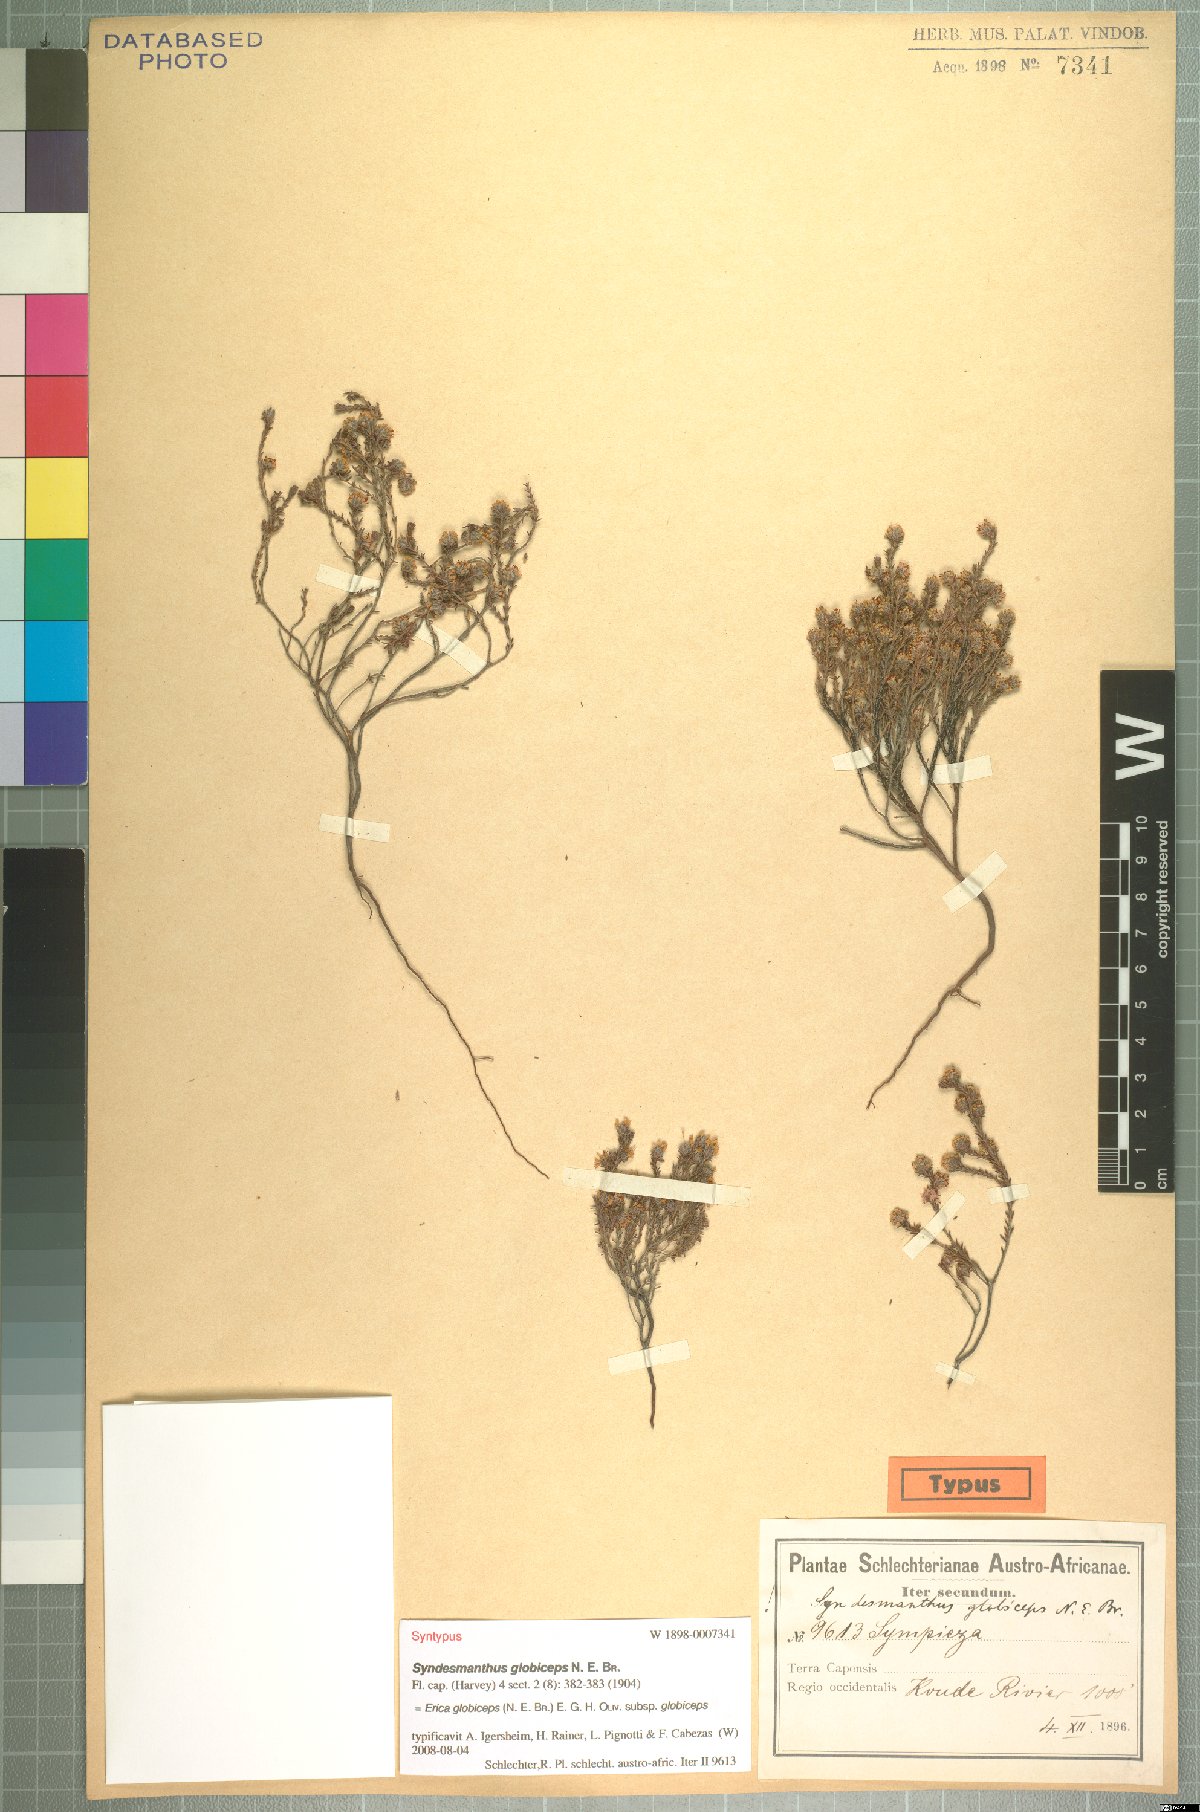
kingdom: Plantae
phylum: Tracheophyta
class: Magnoliopsida
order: Ericales
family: Ericaceae
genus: Erica
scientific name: Erica globiceps
